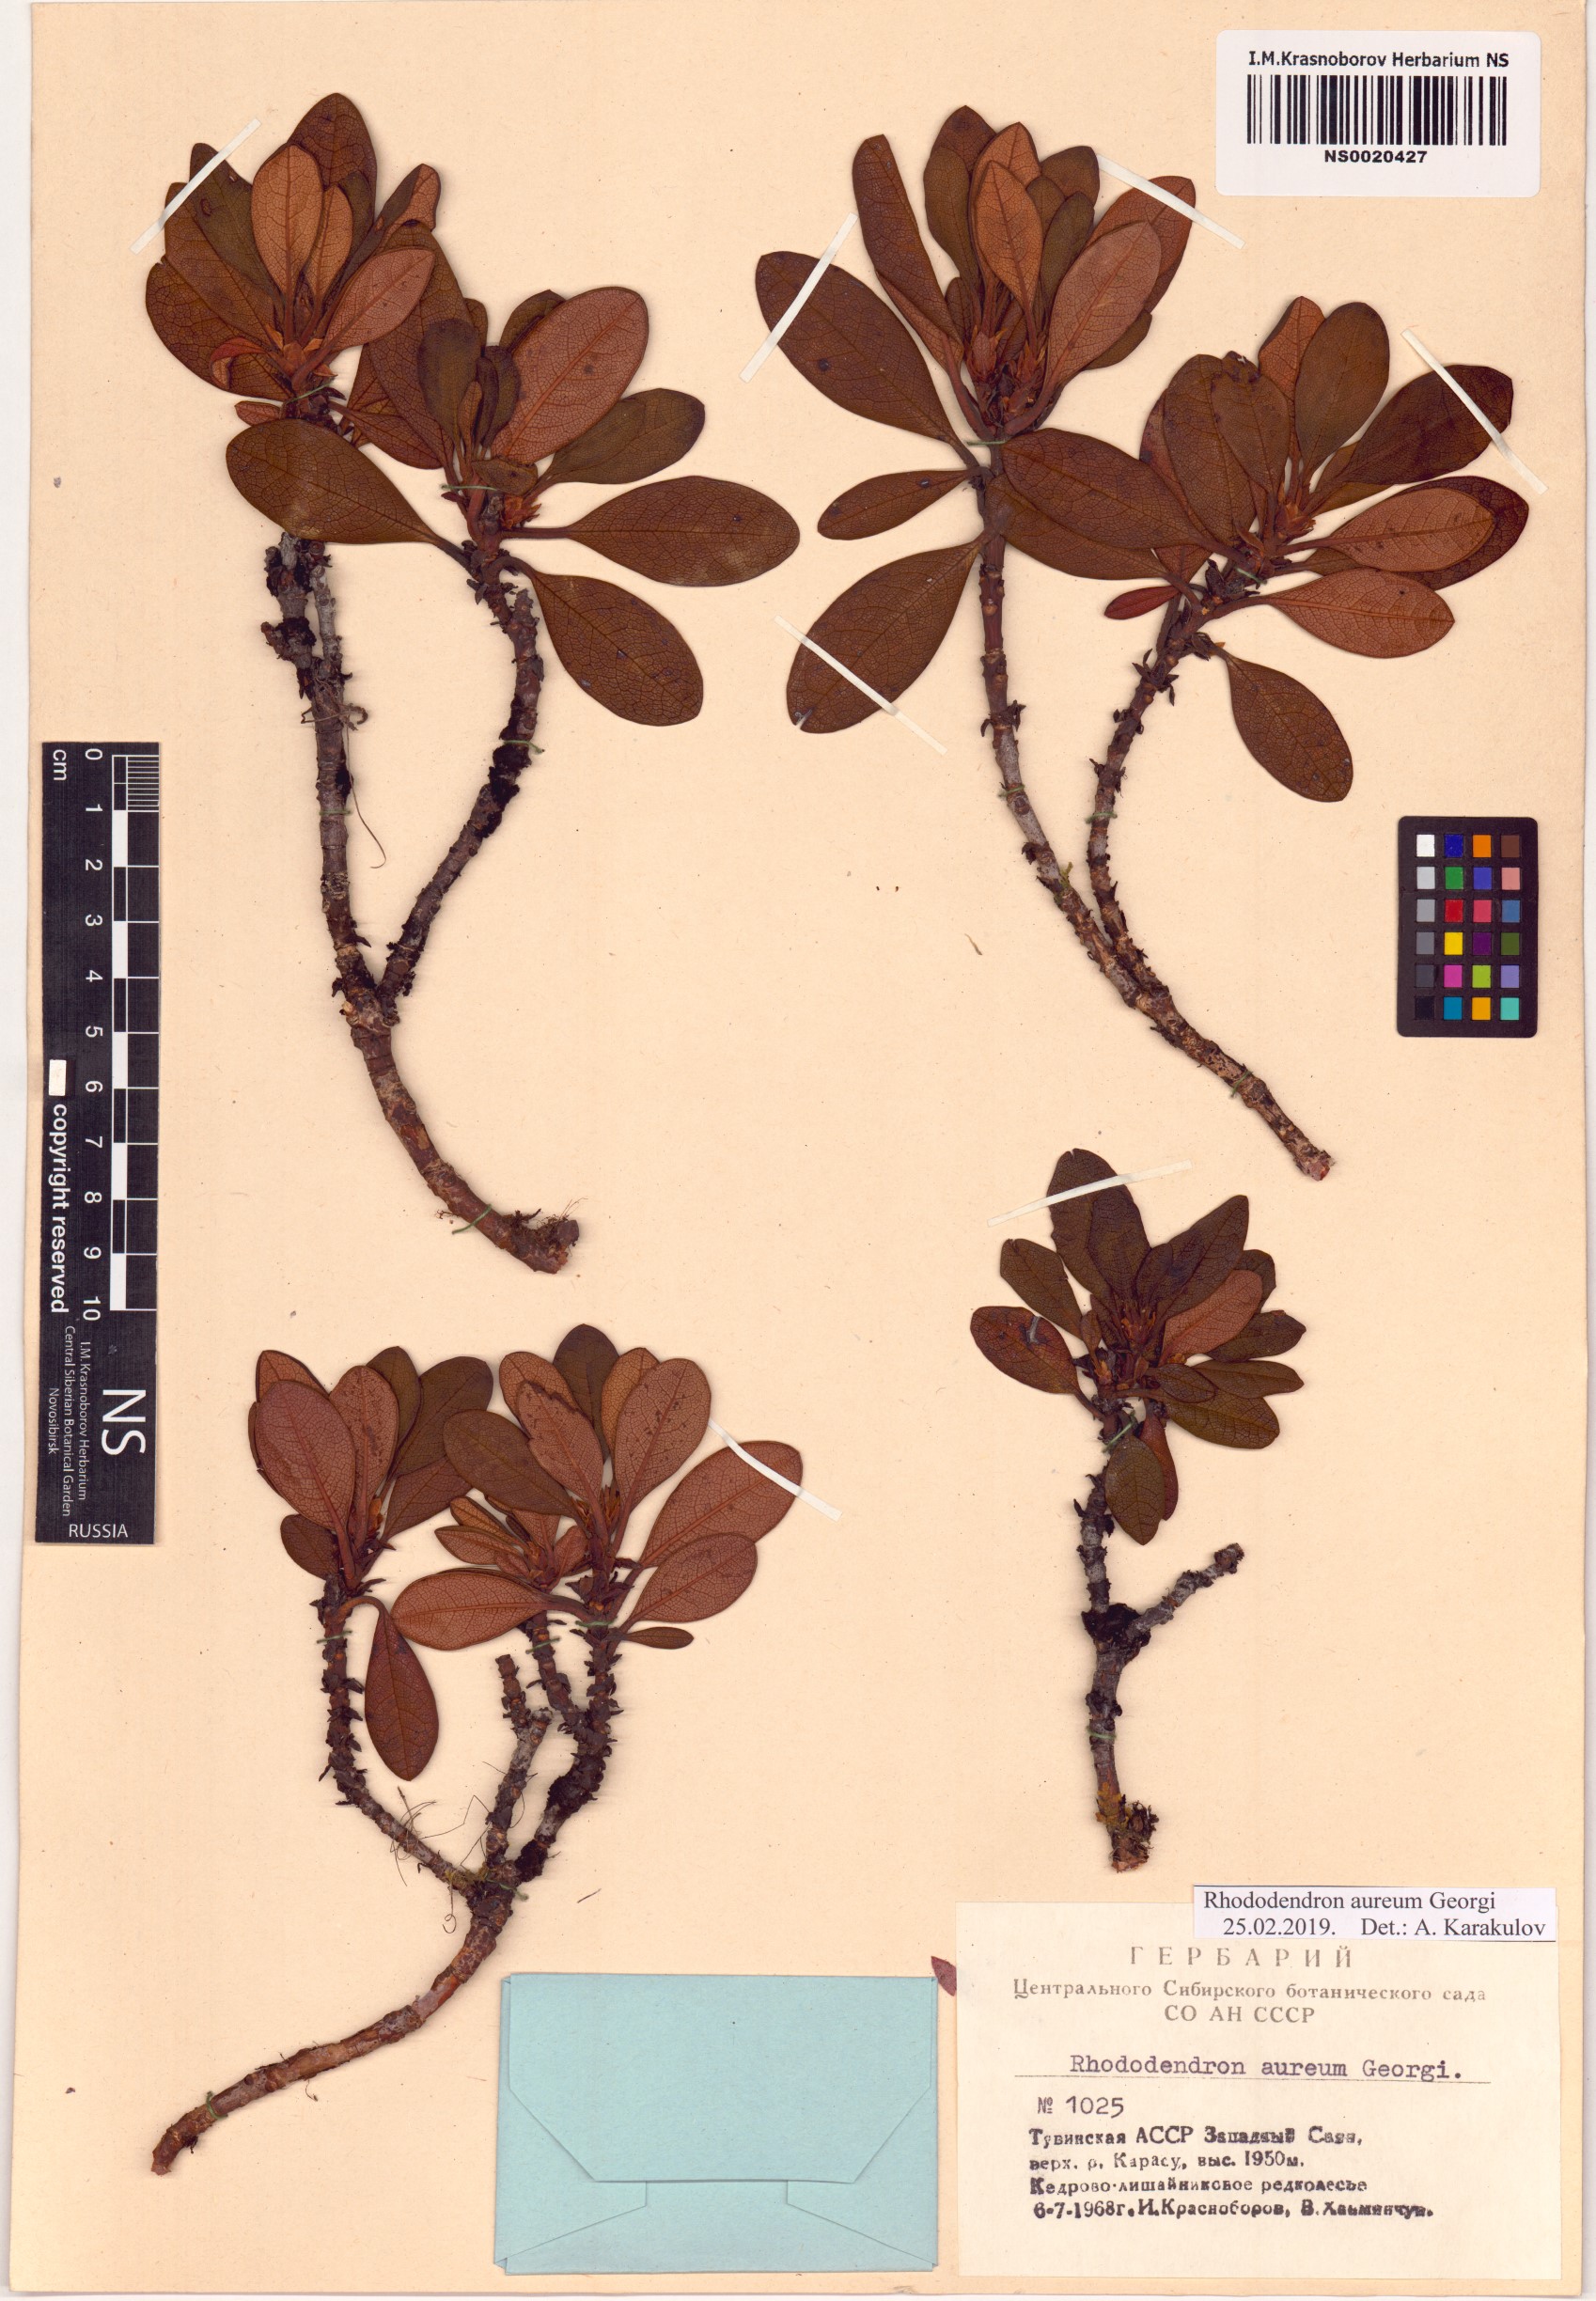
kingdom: Plantae
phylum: Tracheophyta
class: Magnoliopsida
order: Ericales
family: Ericaceae
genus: Rhododendron
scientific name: Rhododendron aureum
